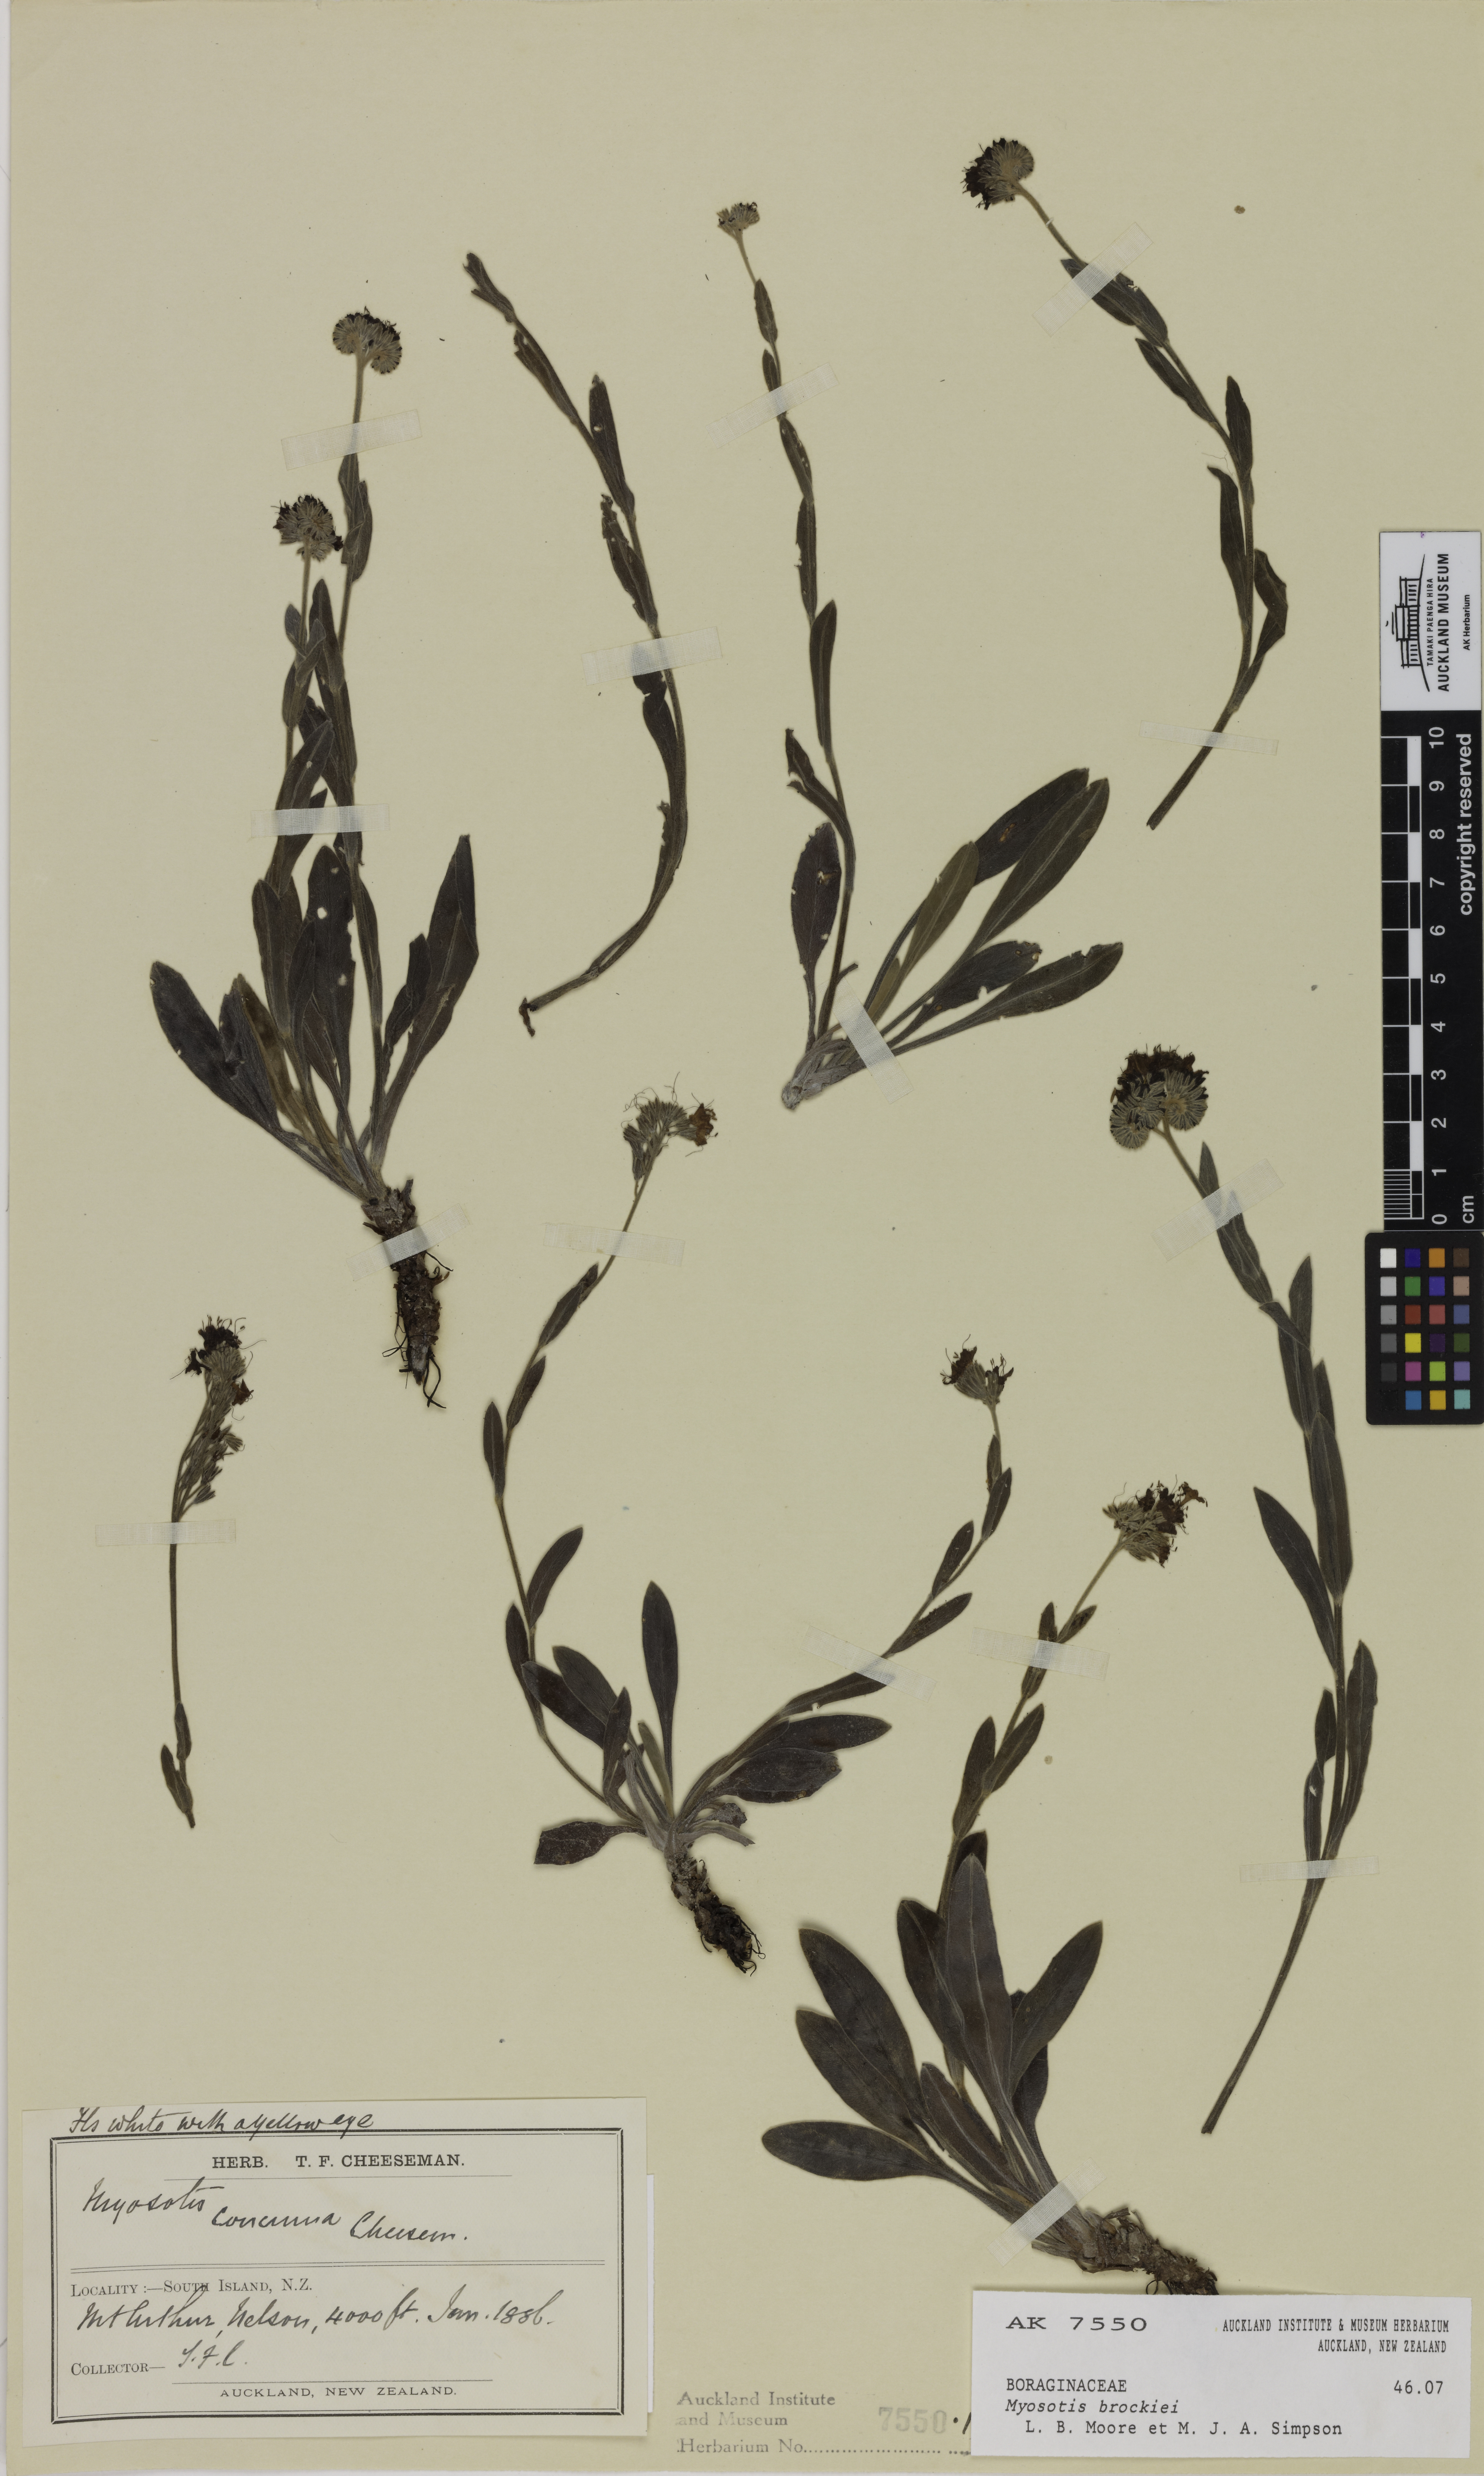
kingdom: Plantae
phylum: Tracheophyta
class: Magnoliopsida
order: Boraginales
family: Boraginaceae
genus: Myosotis
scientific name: Myosotis brockiei
